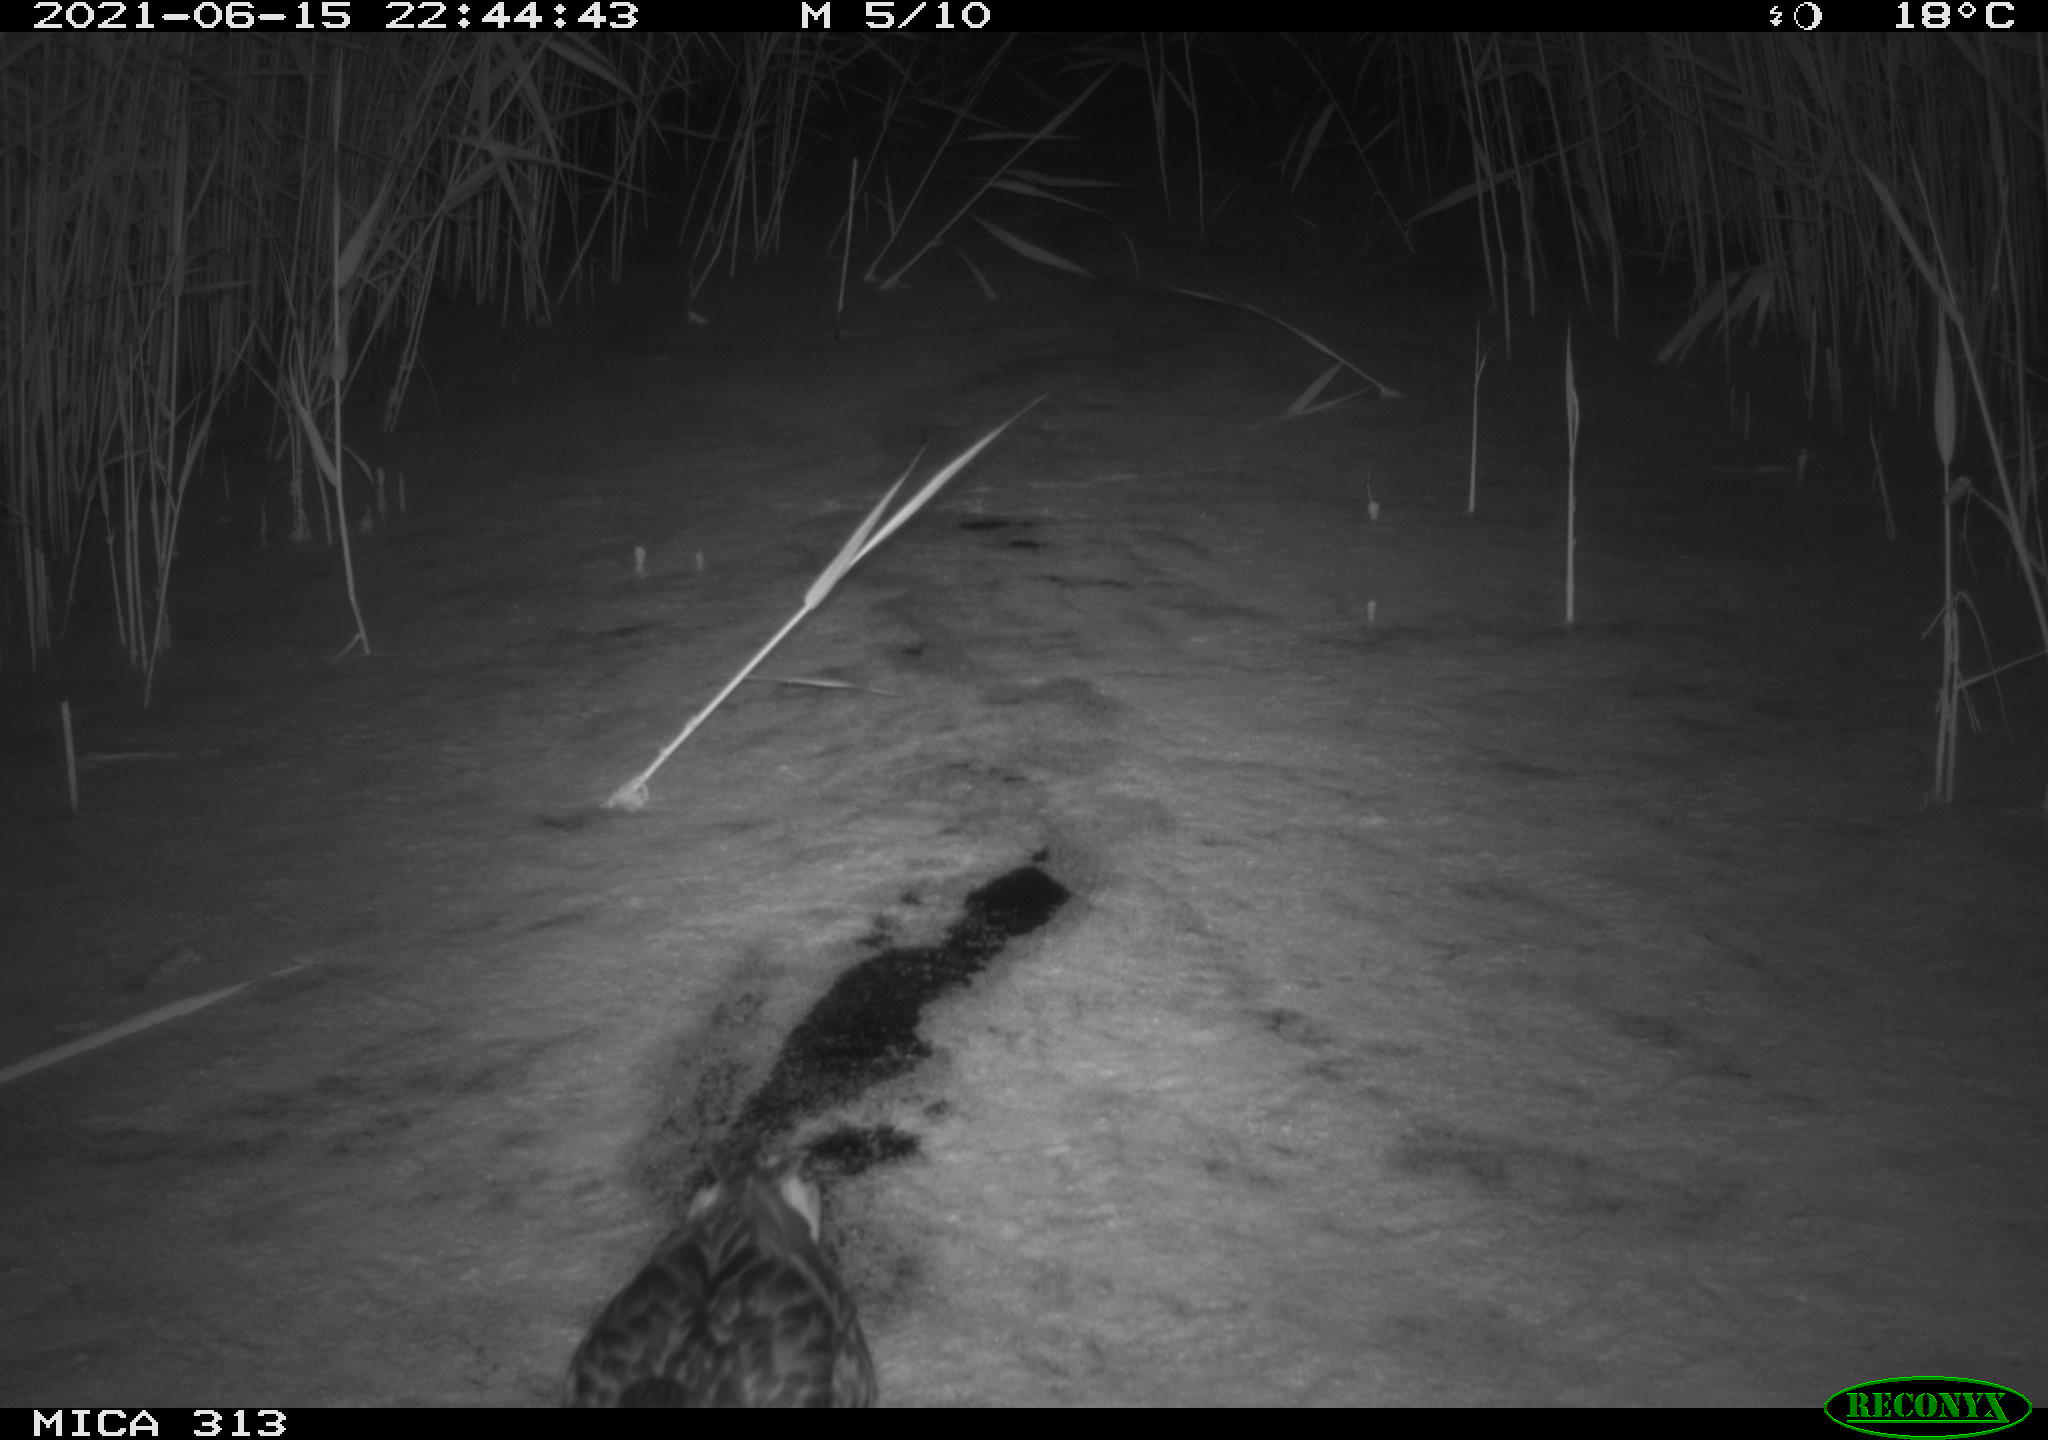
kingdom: Animalia
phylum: Chordata
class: Aves
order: Anseriformes
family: Anatidae
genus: Anas
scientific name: Anas platyrhynchos
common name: Mallard
